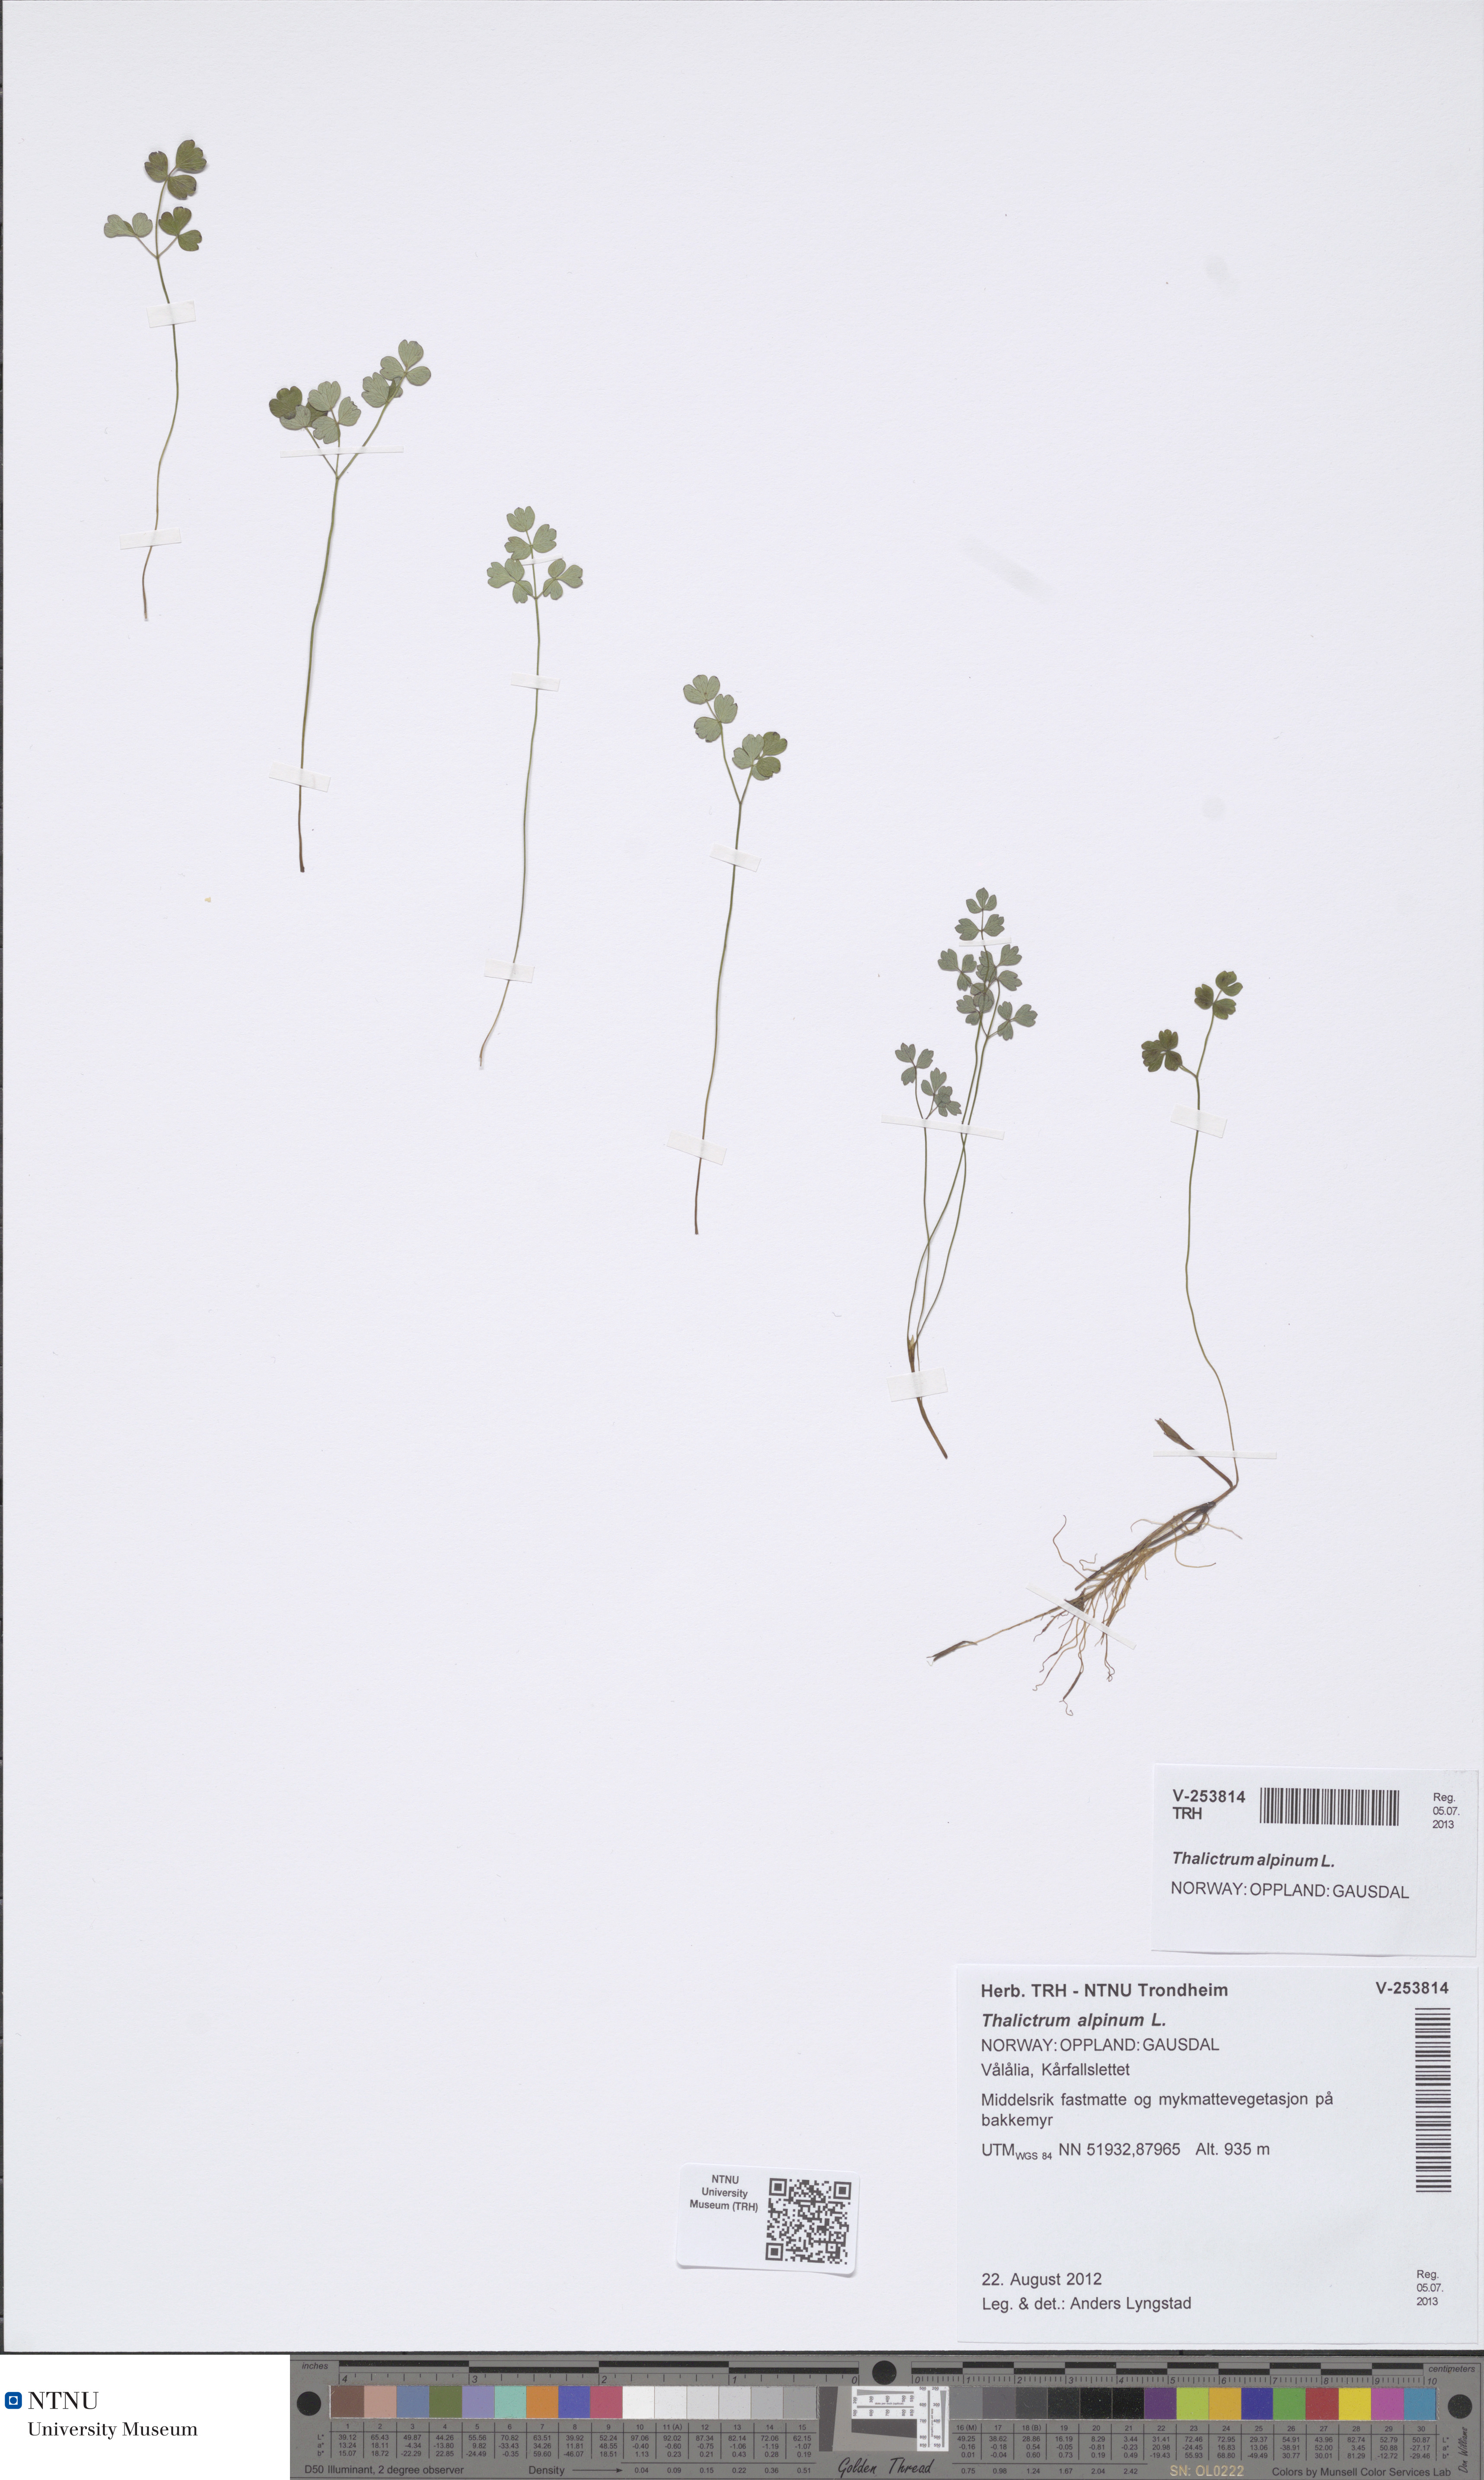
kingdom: Plantae
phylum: Tracheophyta
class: Magnoliopsida
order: Ranunculales
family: Ranunculaceae
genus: Thalictrum
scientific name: Thalictrum alpinum
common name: Alpine meadow-rue
